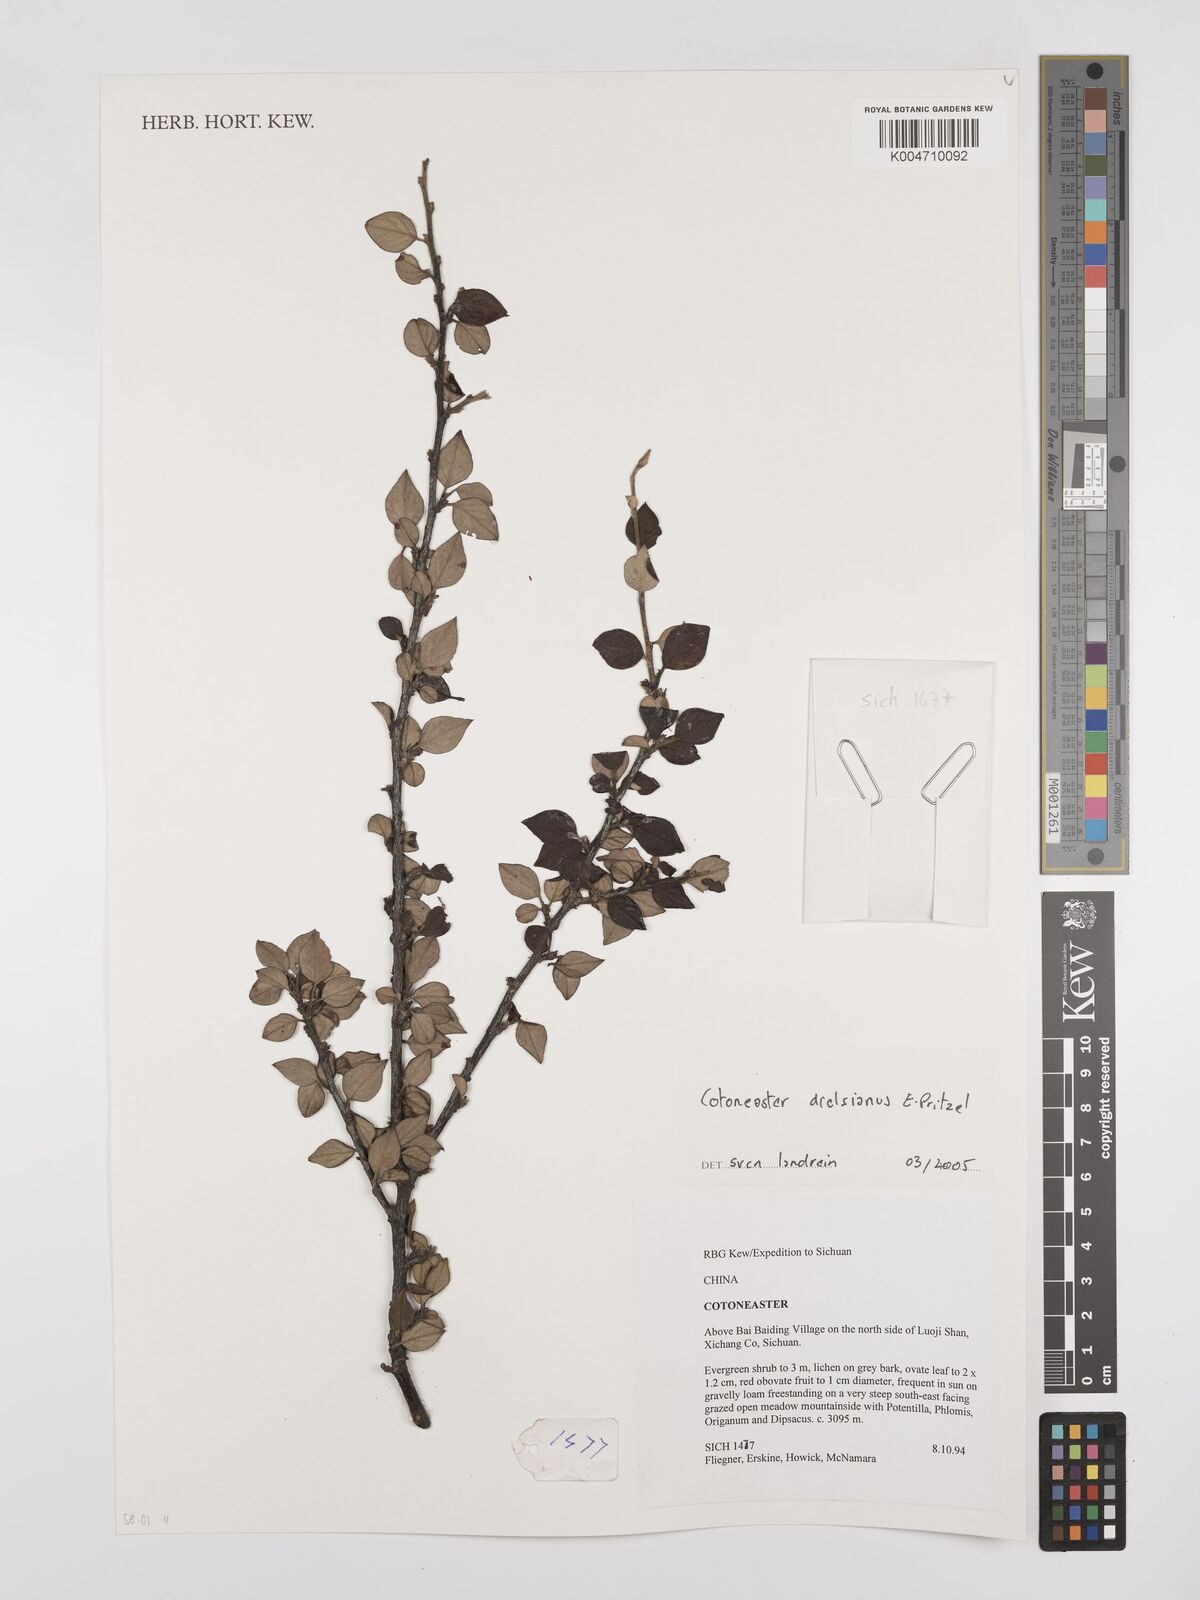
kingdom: Plantae
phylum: Tracheophyta
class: Magnoliopsida
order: Rosales
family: Rosaceae
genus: Cotoneaster
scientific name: Cotoneaster dielsianus
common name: Diels's cotoneaster
